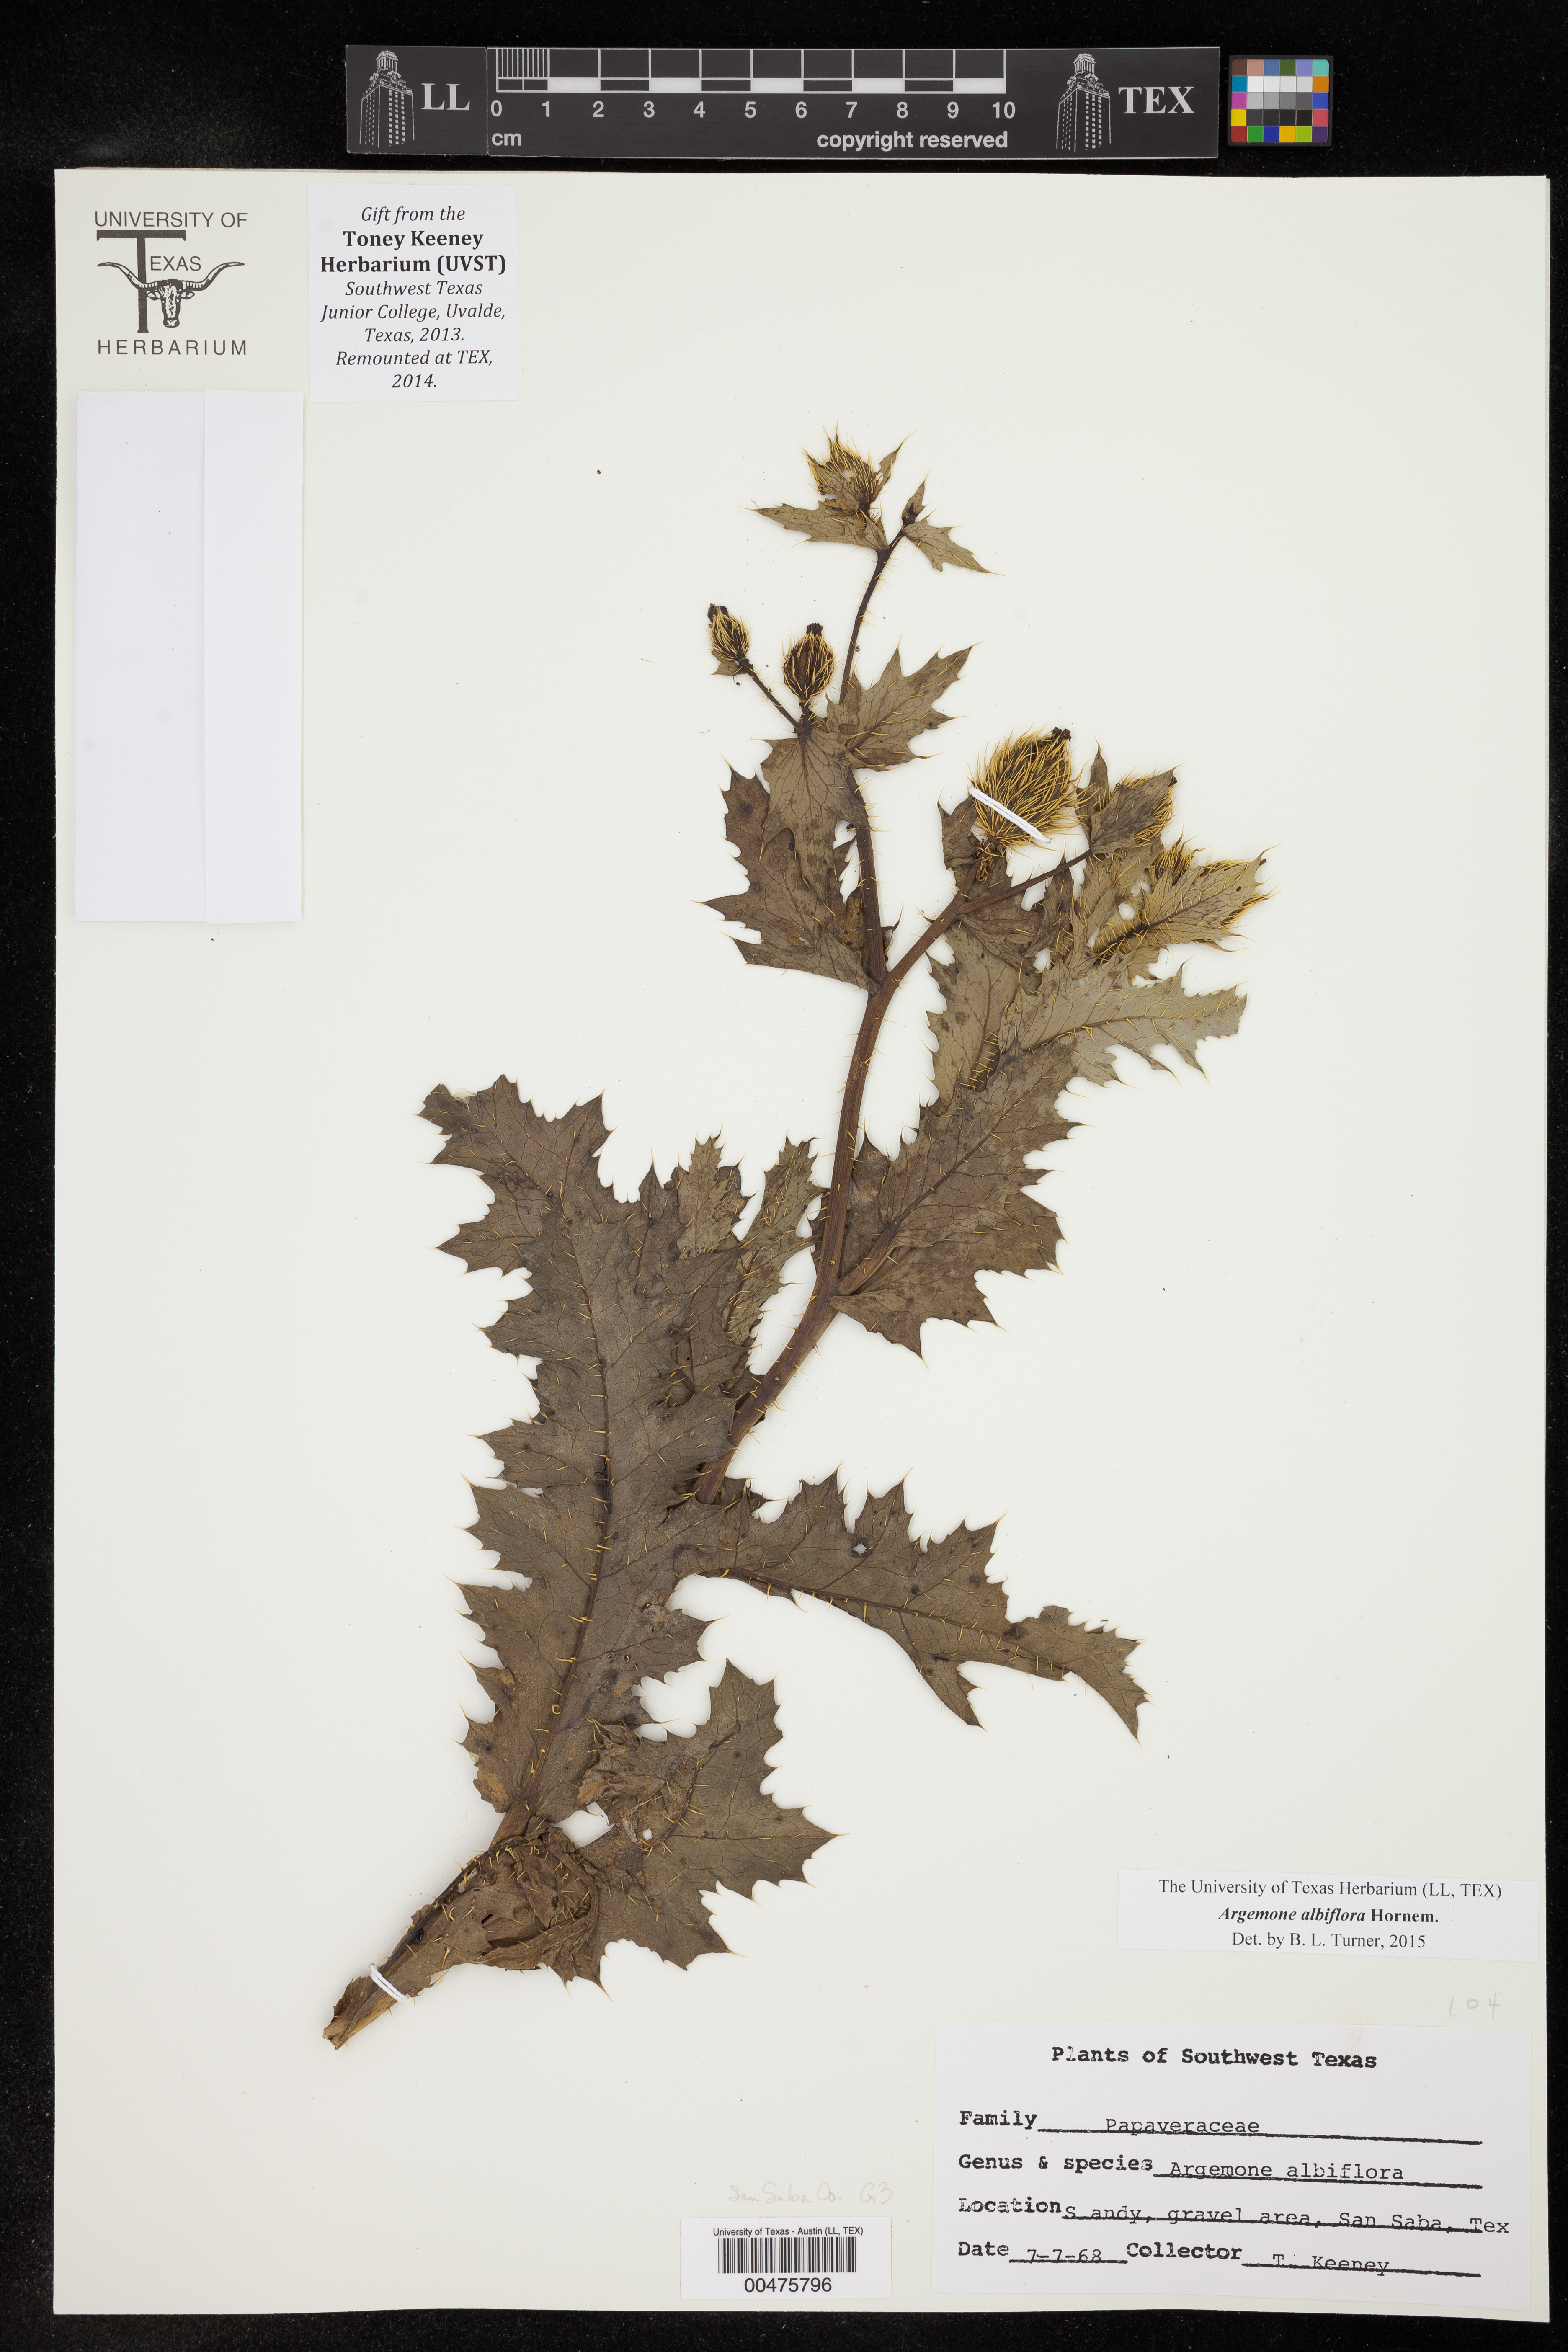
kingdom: Plantae
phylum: Tracheophyta
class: Magnoliopsida
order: Ranunculales
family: Papaveraceae
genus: Argemone
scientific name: Argemone albiflora
